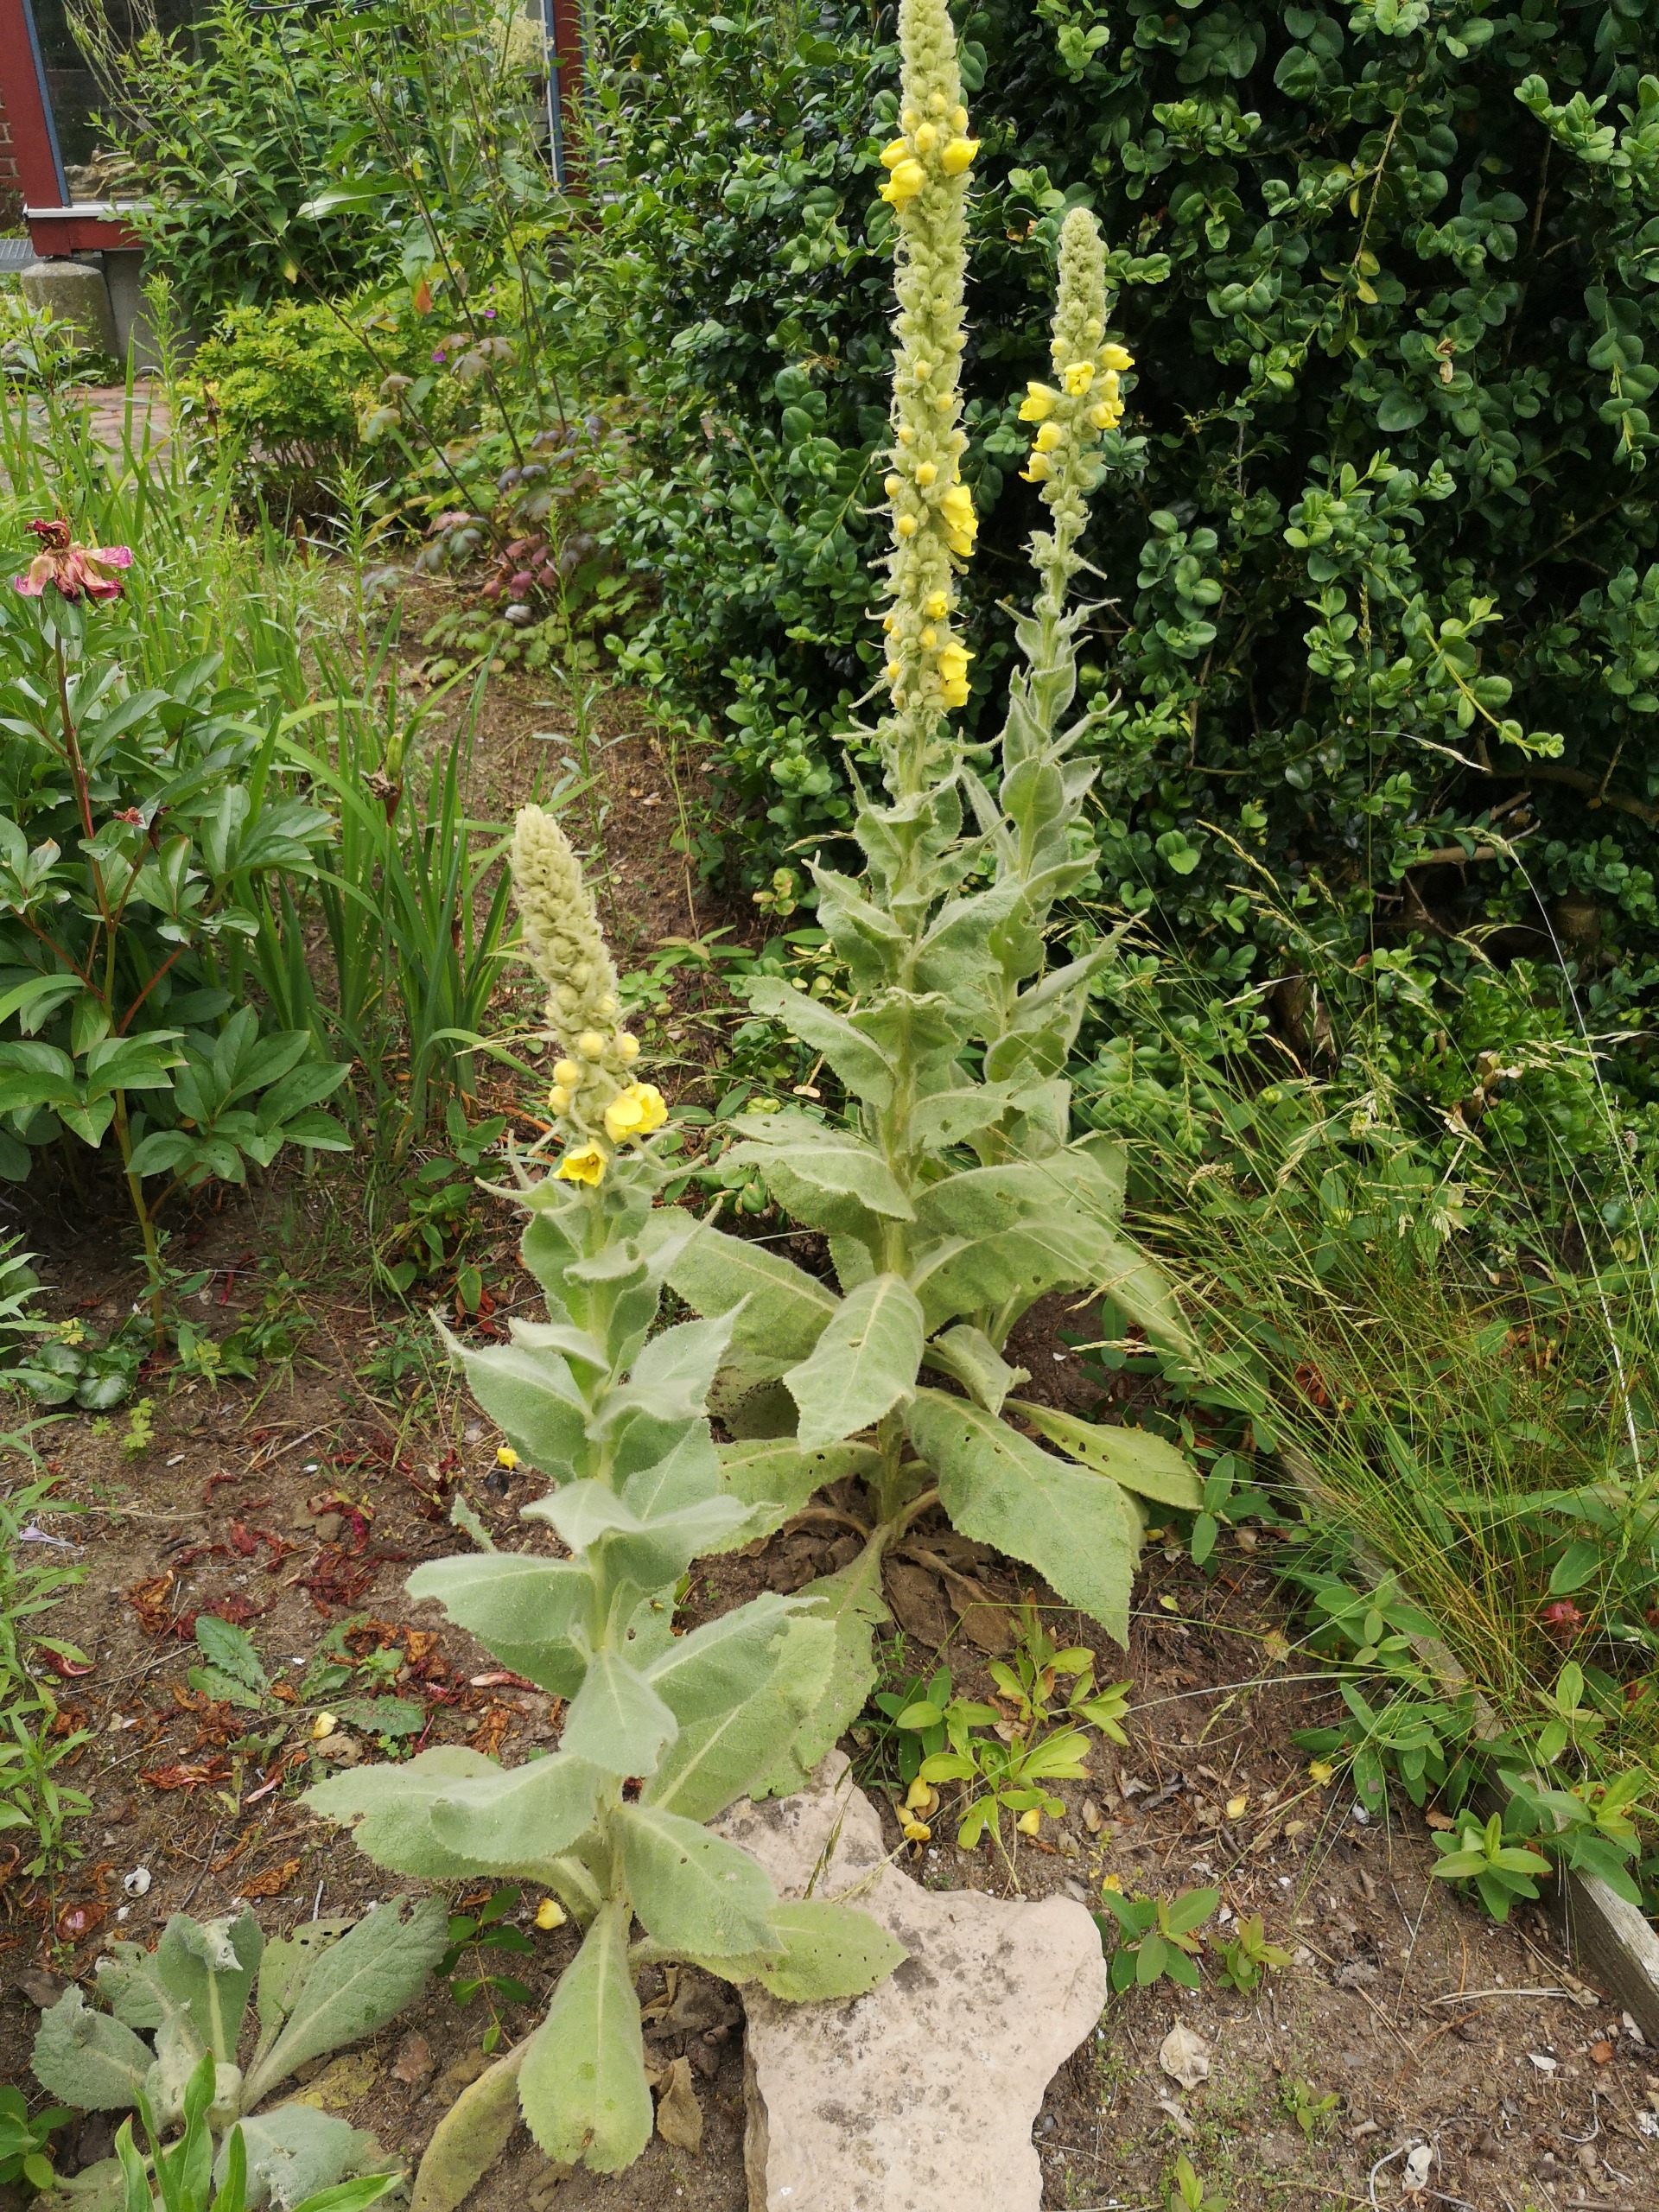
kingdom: Plantae
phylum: Tracheophyta
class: Magnoliopsida
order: Lamiales
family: Scrophulariaceae
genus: Verbascum
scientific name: Verbascum thapsus
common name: Filtbladet kongelys
